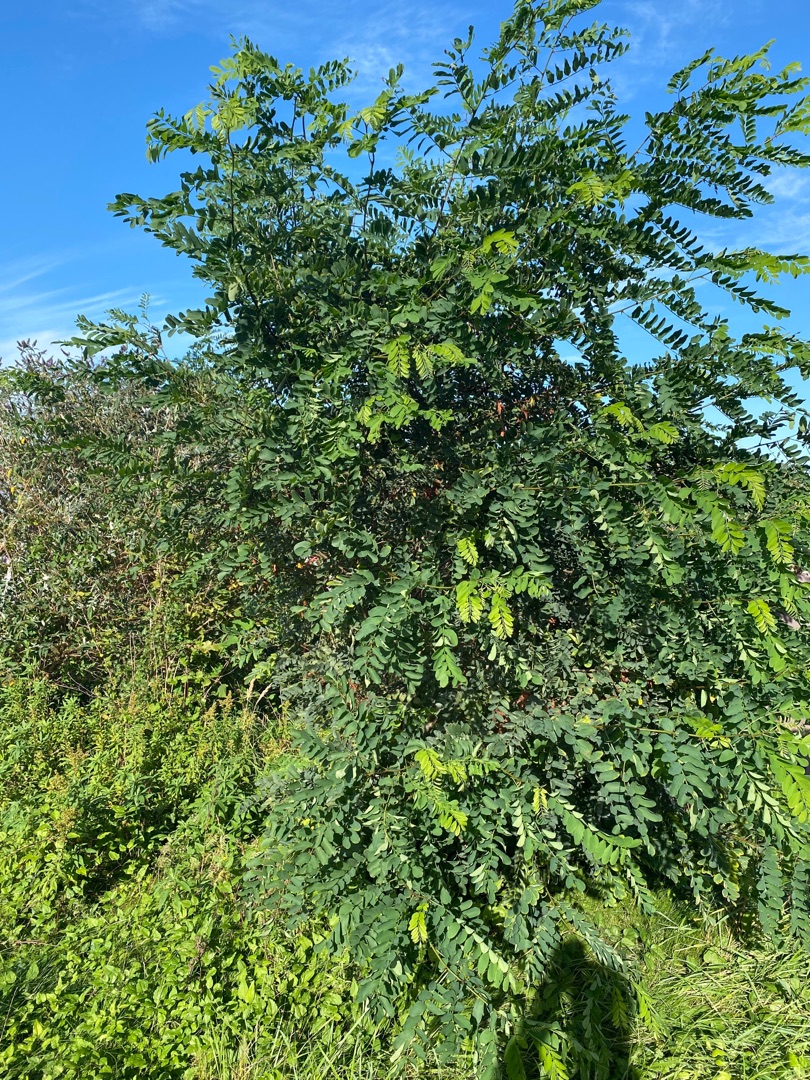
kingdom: Plantae
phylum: Tracheophyta
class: Magnoliopsida
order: Fabales
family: Fabaceae
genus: Robinia
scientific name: Robinia pseudoacacia
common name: Robinie
